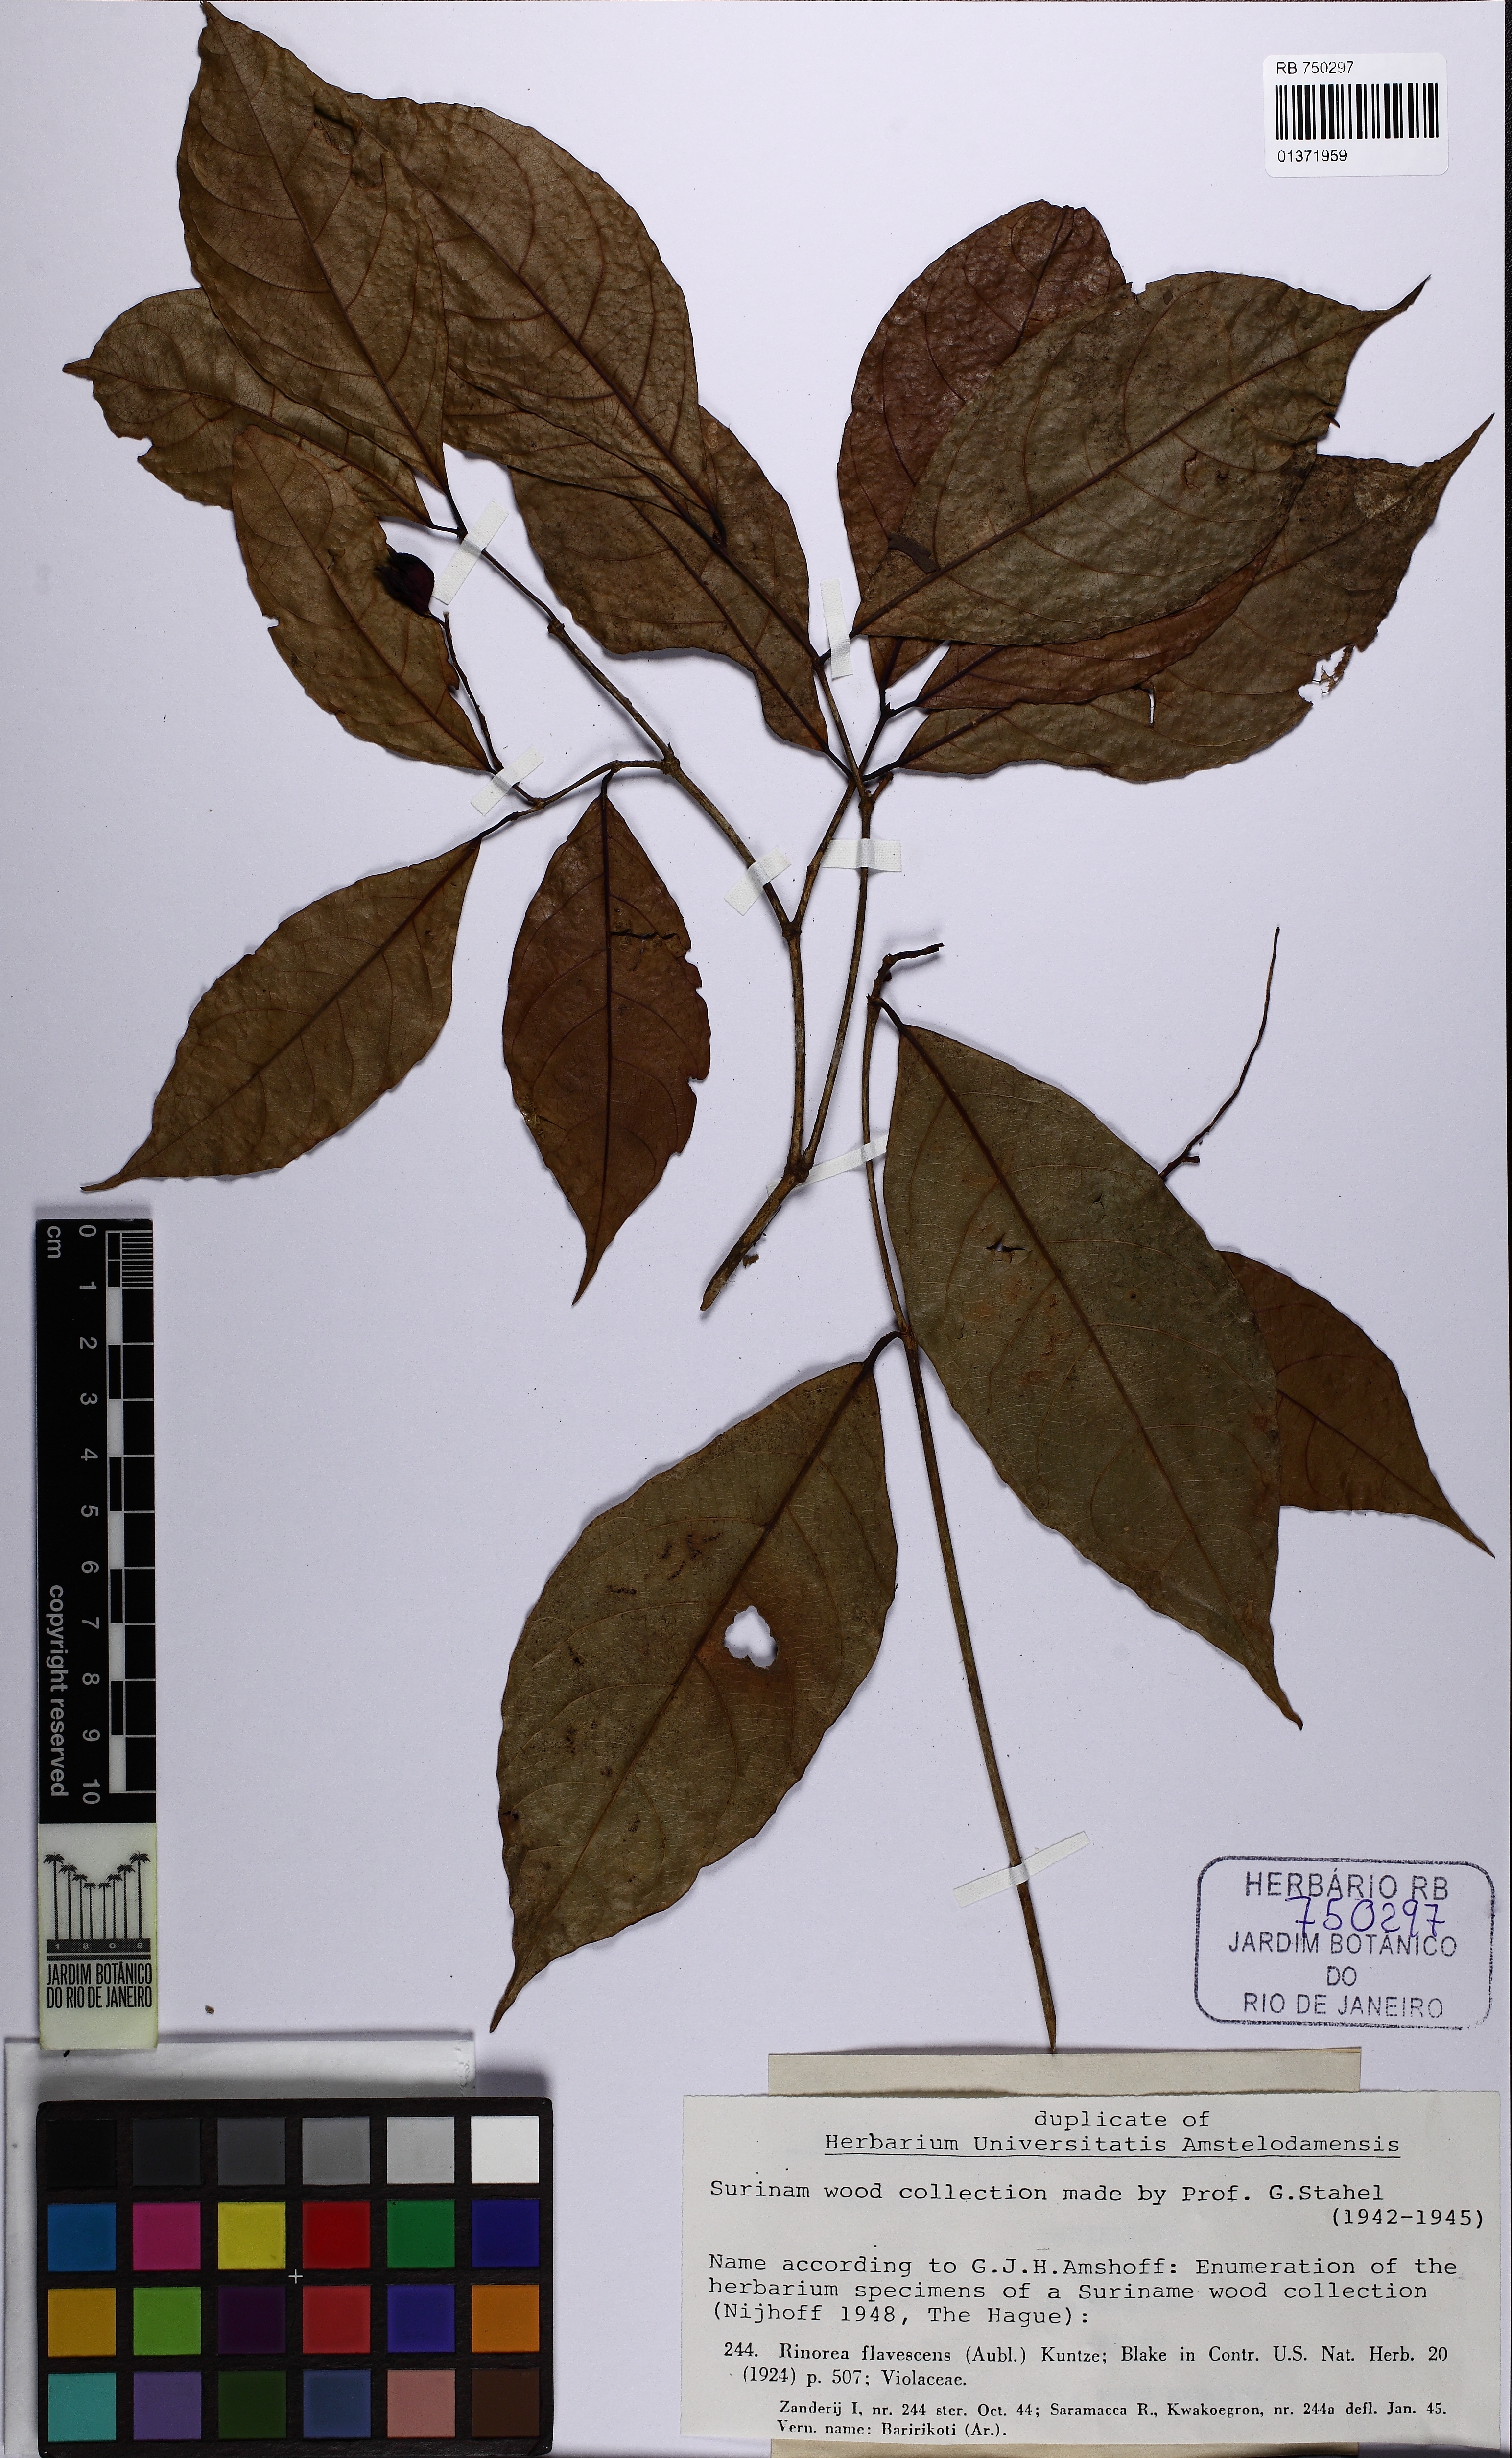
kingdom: Plantae
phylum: Tracheophyta
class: Magnoliopsida
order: Malpighiales
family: Violaceae
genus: Rinorea
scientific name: Rinorea flavescens
